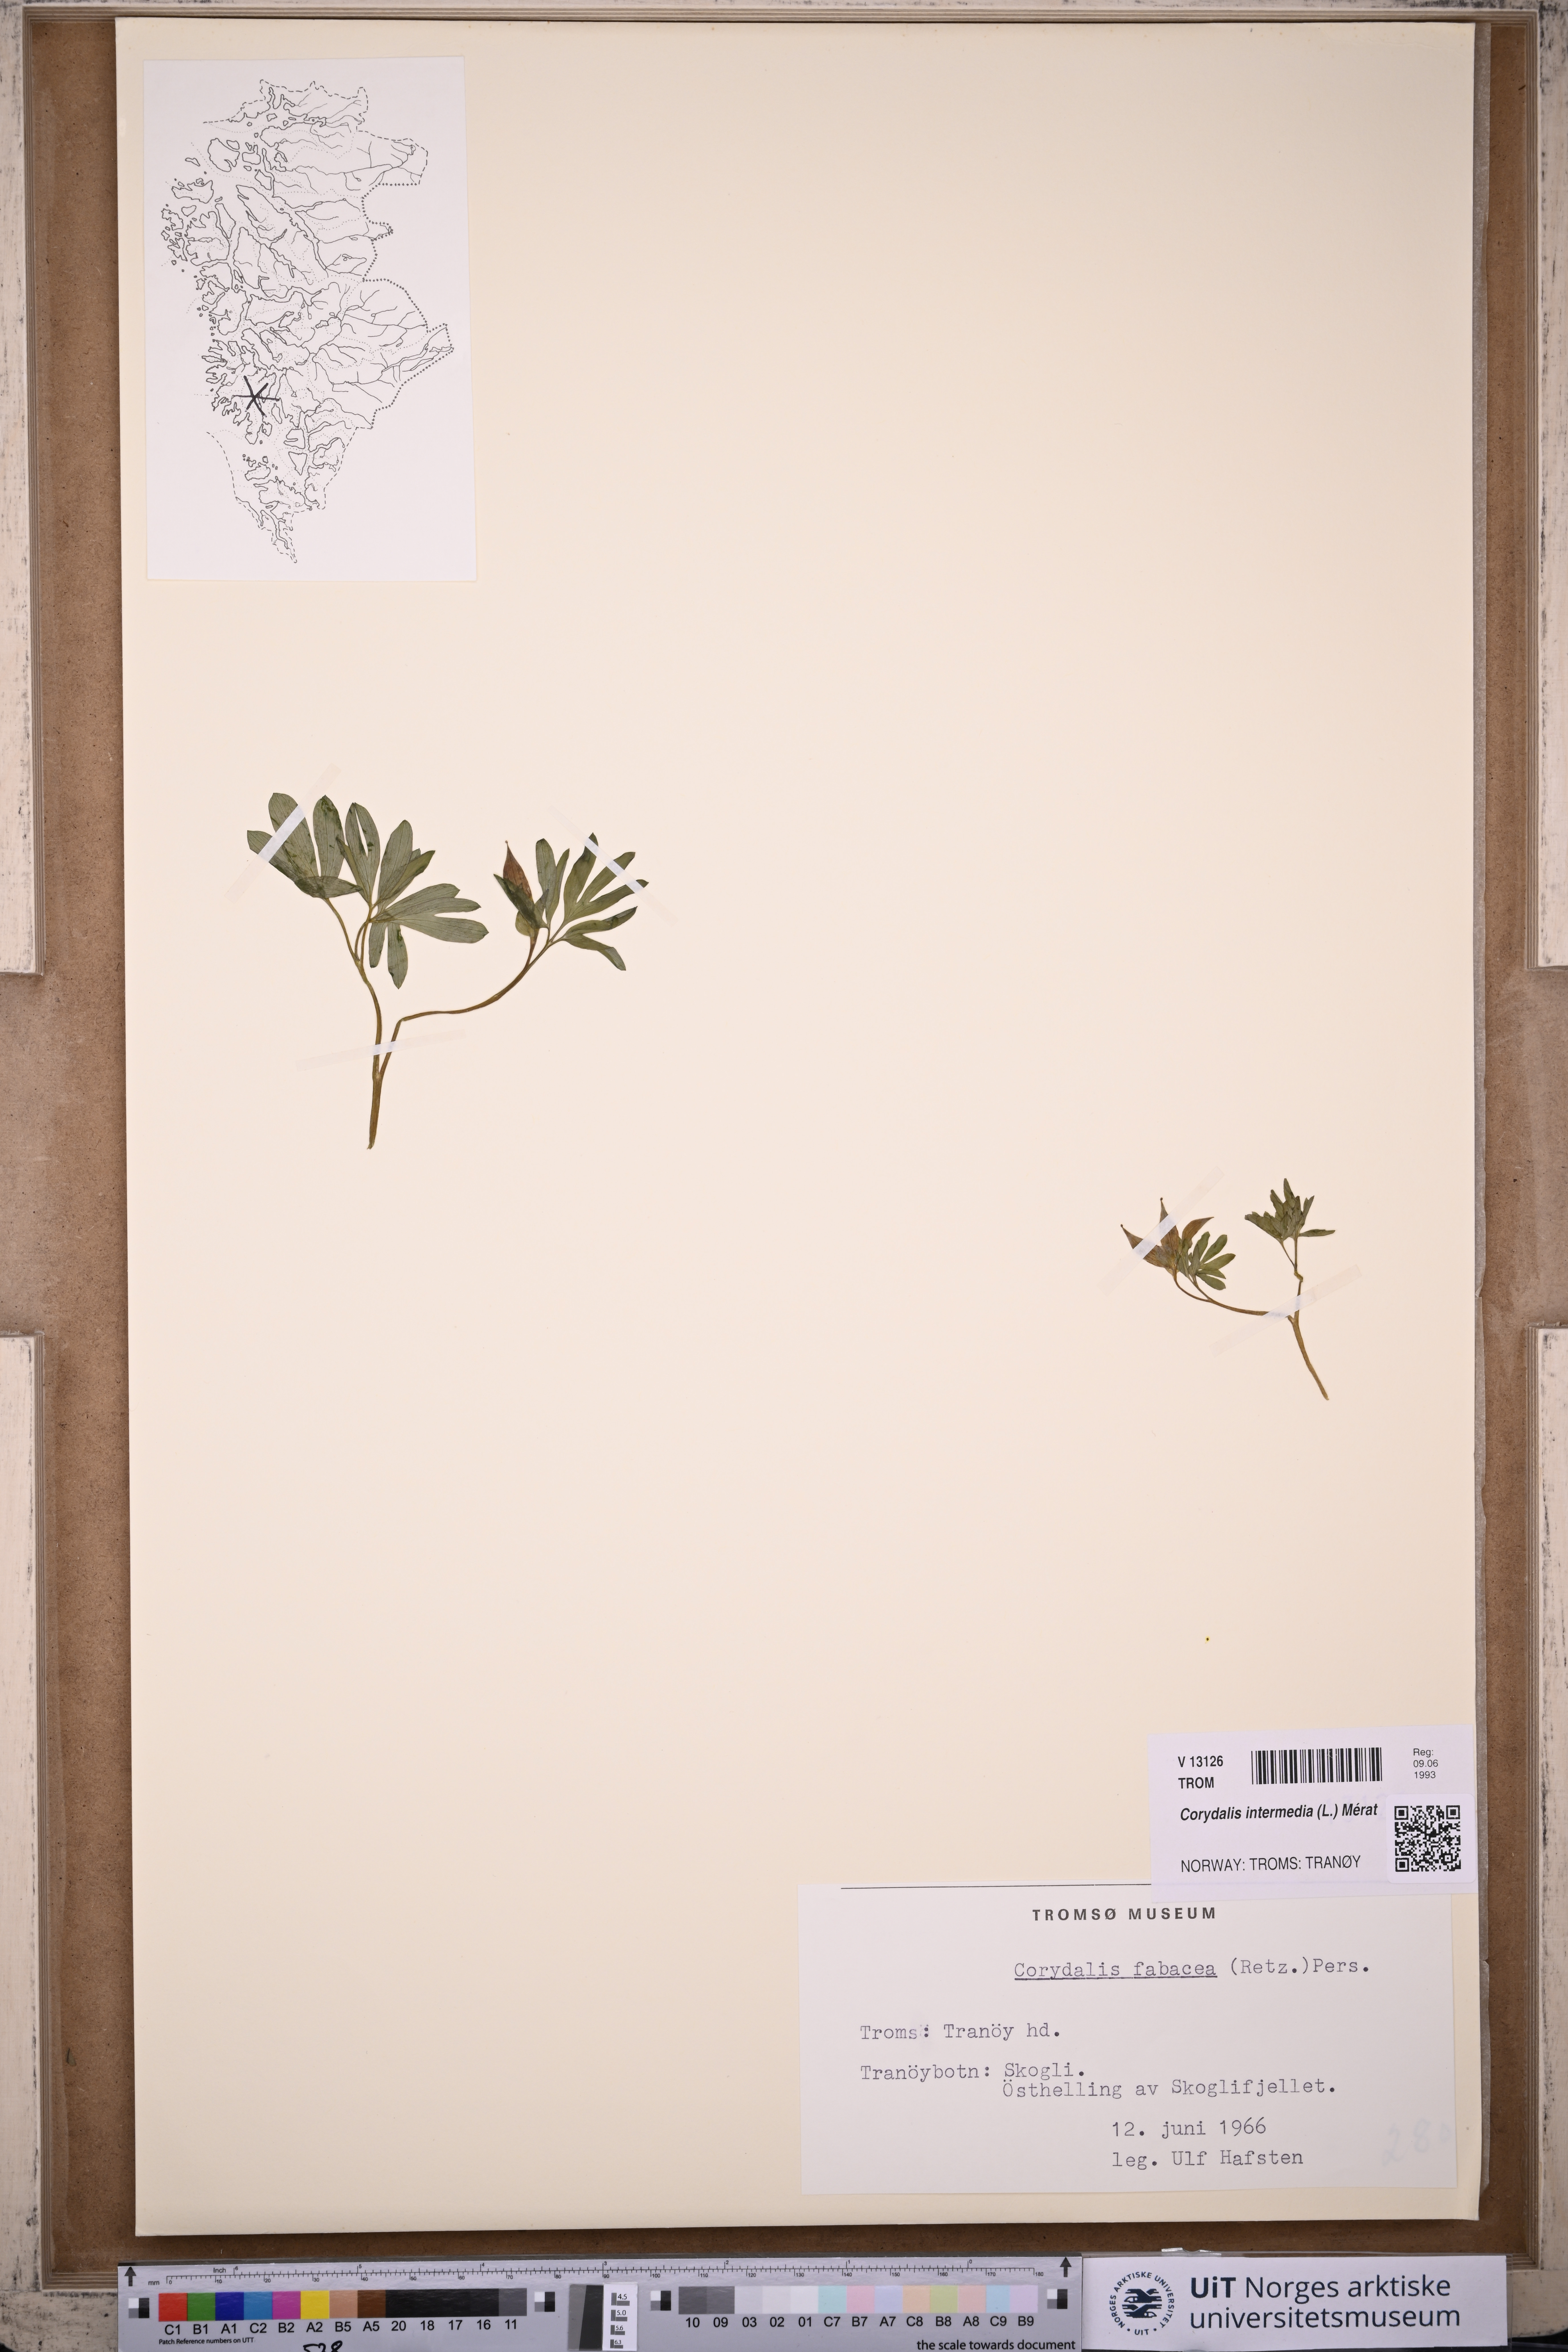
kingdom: Plantae
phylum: Tracheophyta
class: Magnoliopsida
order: Ranunculales
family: Papaveraceae
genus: Corydalis
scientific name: Corydalis intermedia
